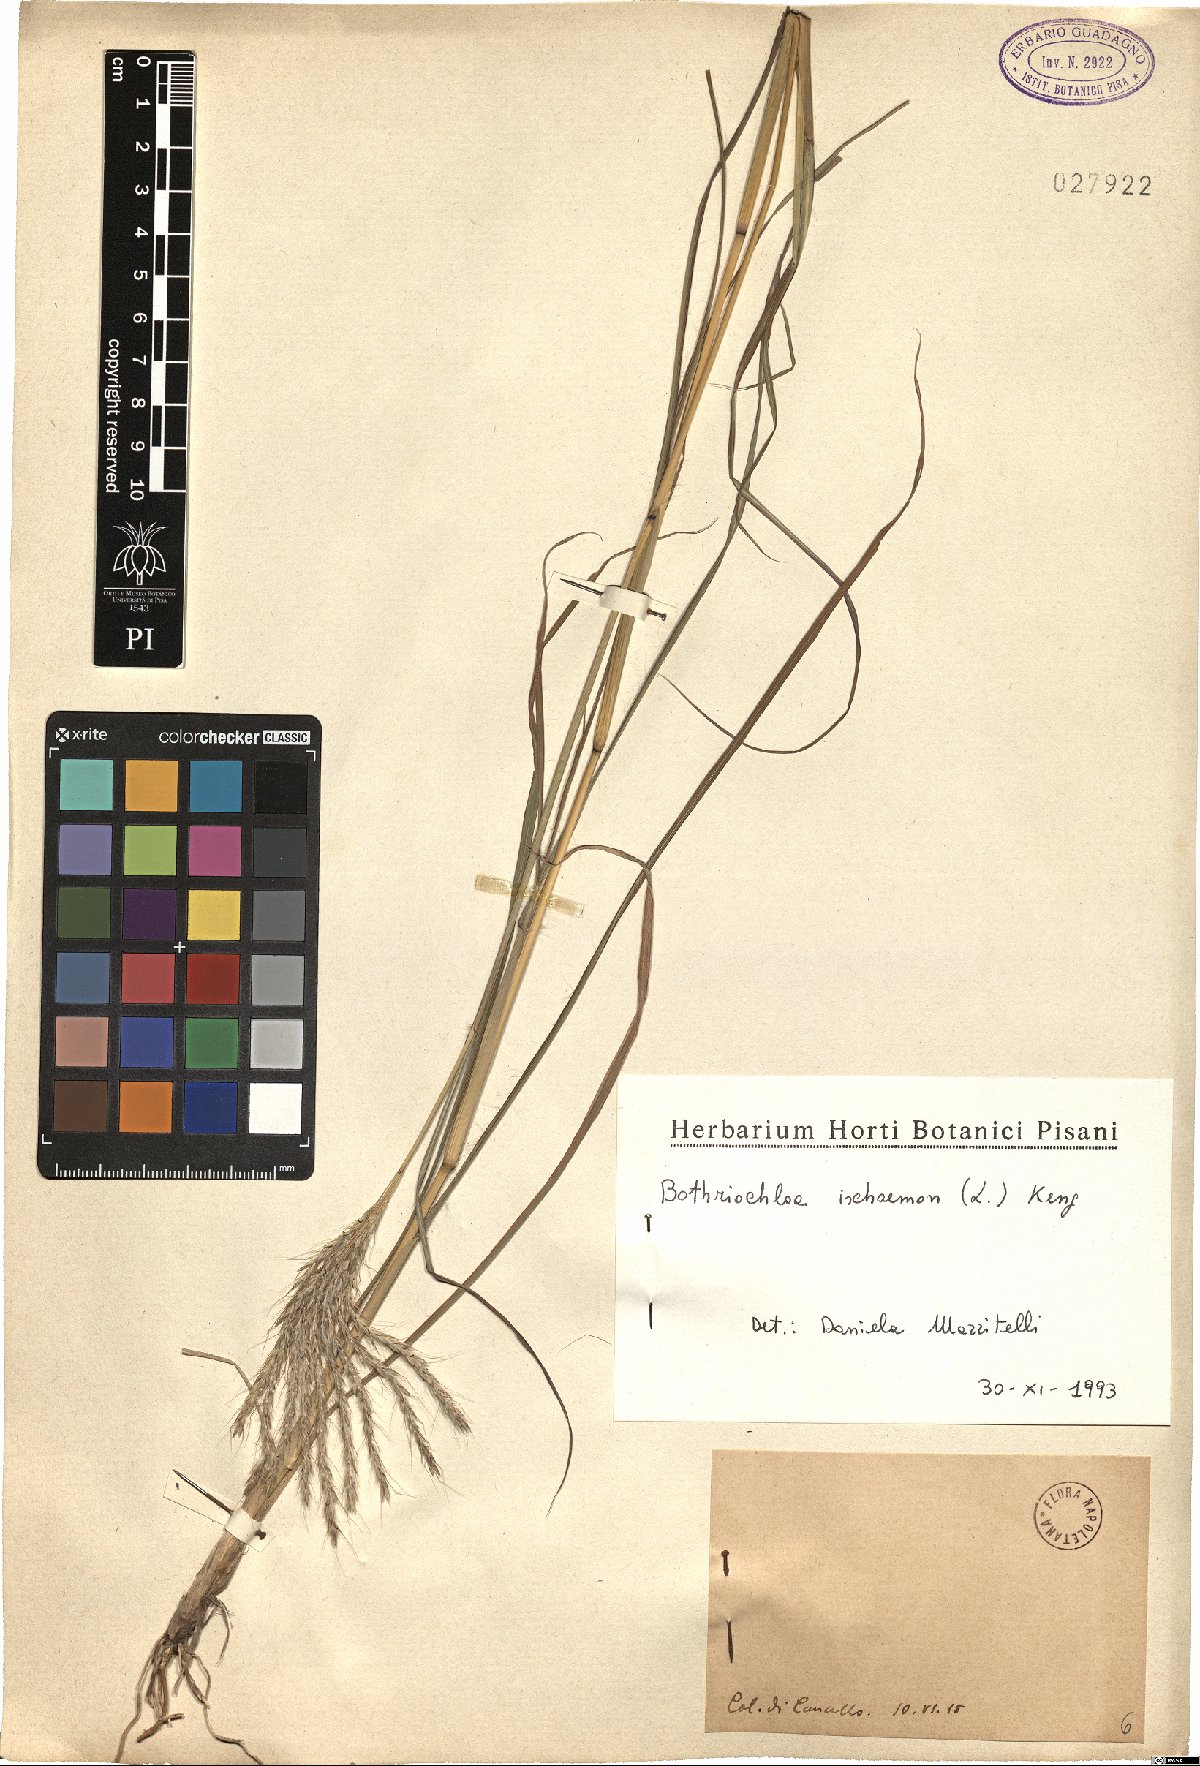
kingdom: Plantae
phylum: Tracheophyta
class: Liliopsida
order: Poales
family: Poaceae
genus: Bothriochloa
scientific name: Bothriochloa ischaemum
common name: Yellow bluestem
